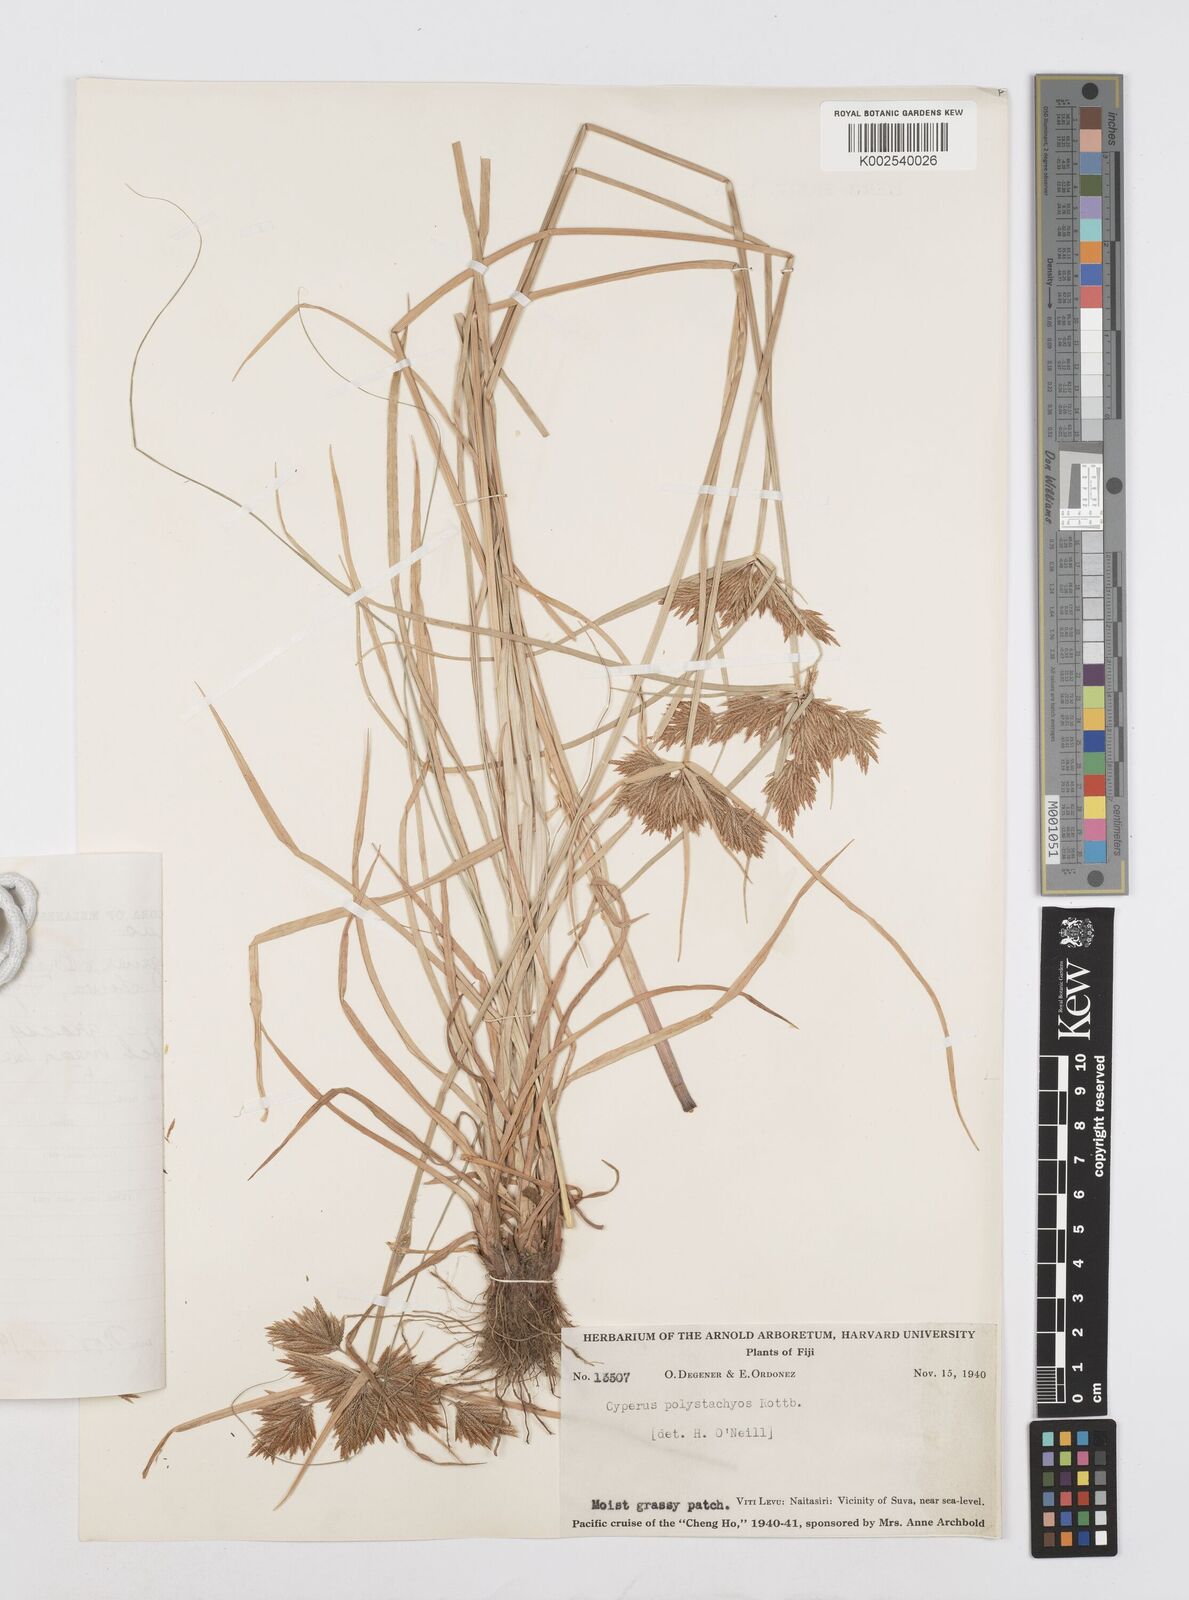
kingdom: Plantae
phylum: Tracheophyta
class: Liliopsida
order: Poales
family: Cyperaceae
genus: Cyperus
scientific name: Cyperus polystachyos
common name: Bunchy flat sedge
